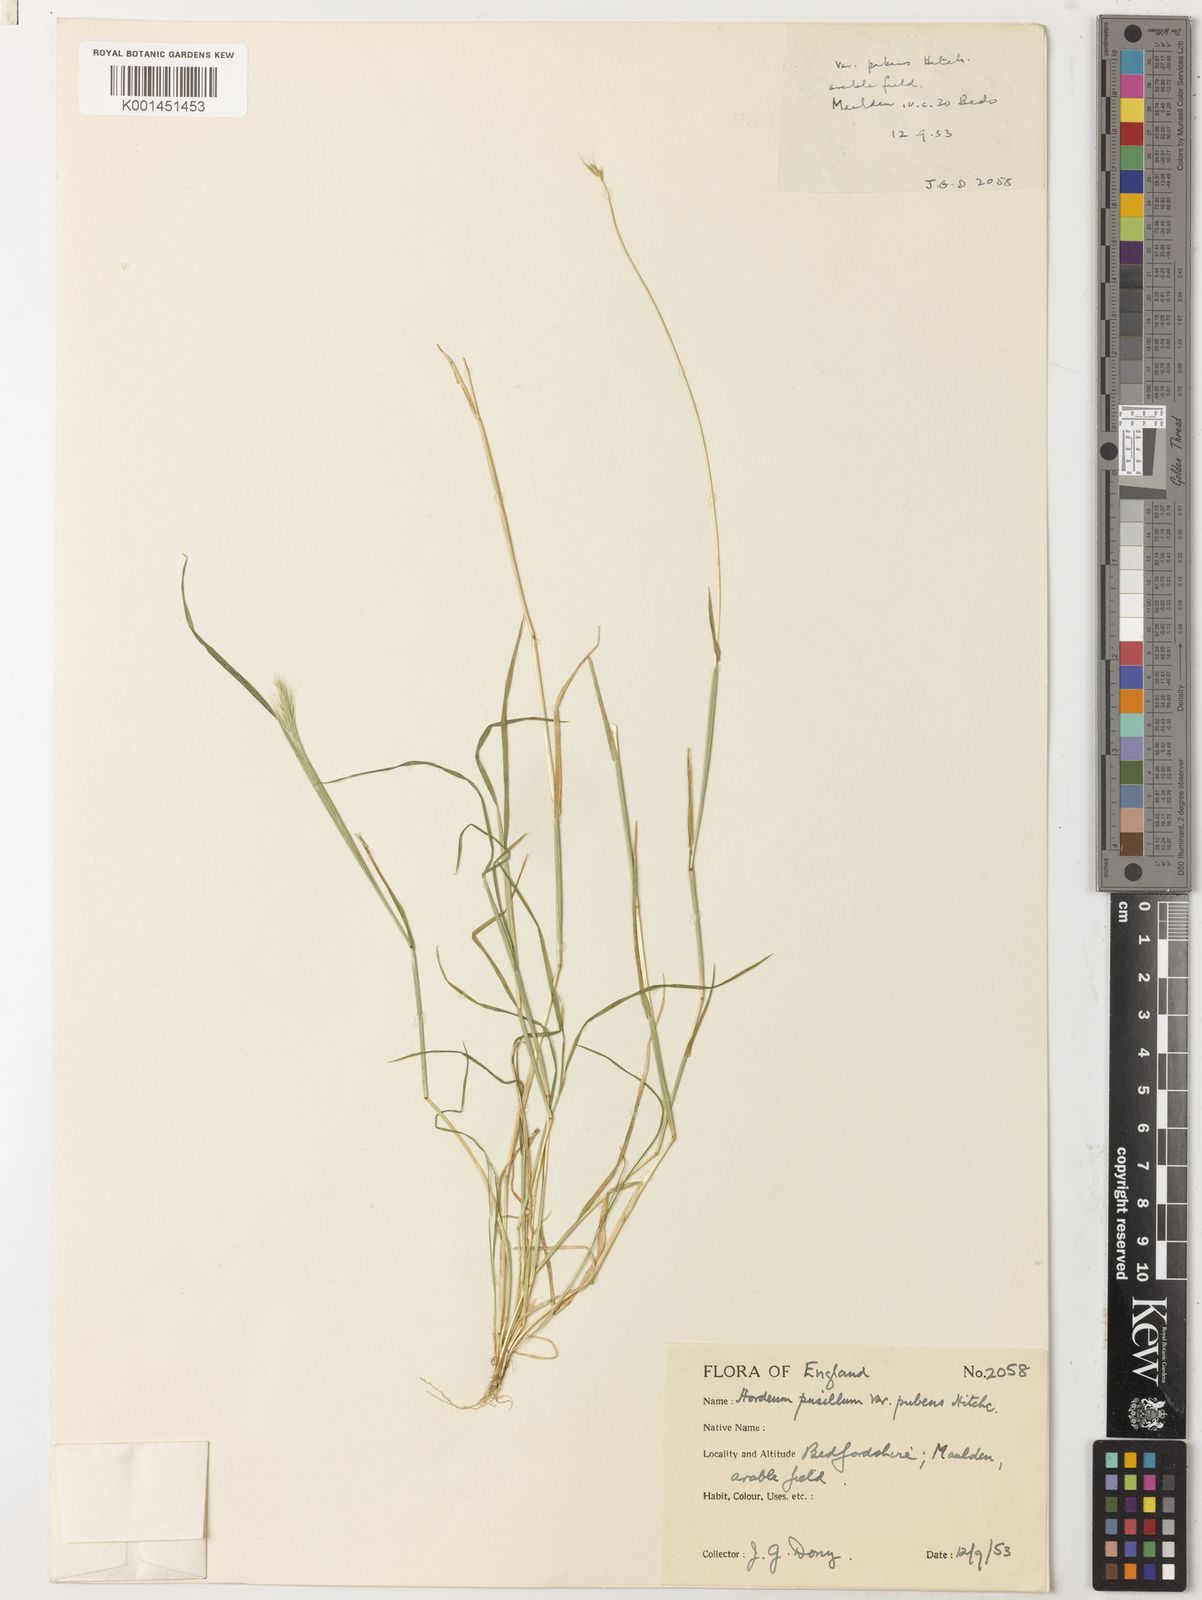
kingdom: Plantae
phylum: Tracheophyta
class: Liliopsida
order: Poales
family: Poaceae
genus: Hordeum
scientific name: Hordeum pusillum
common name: Little barley
